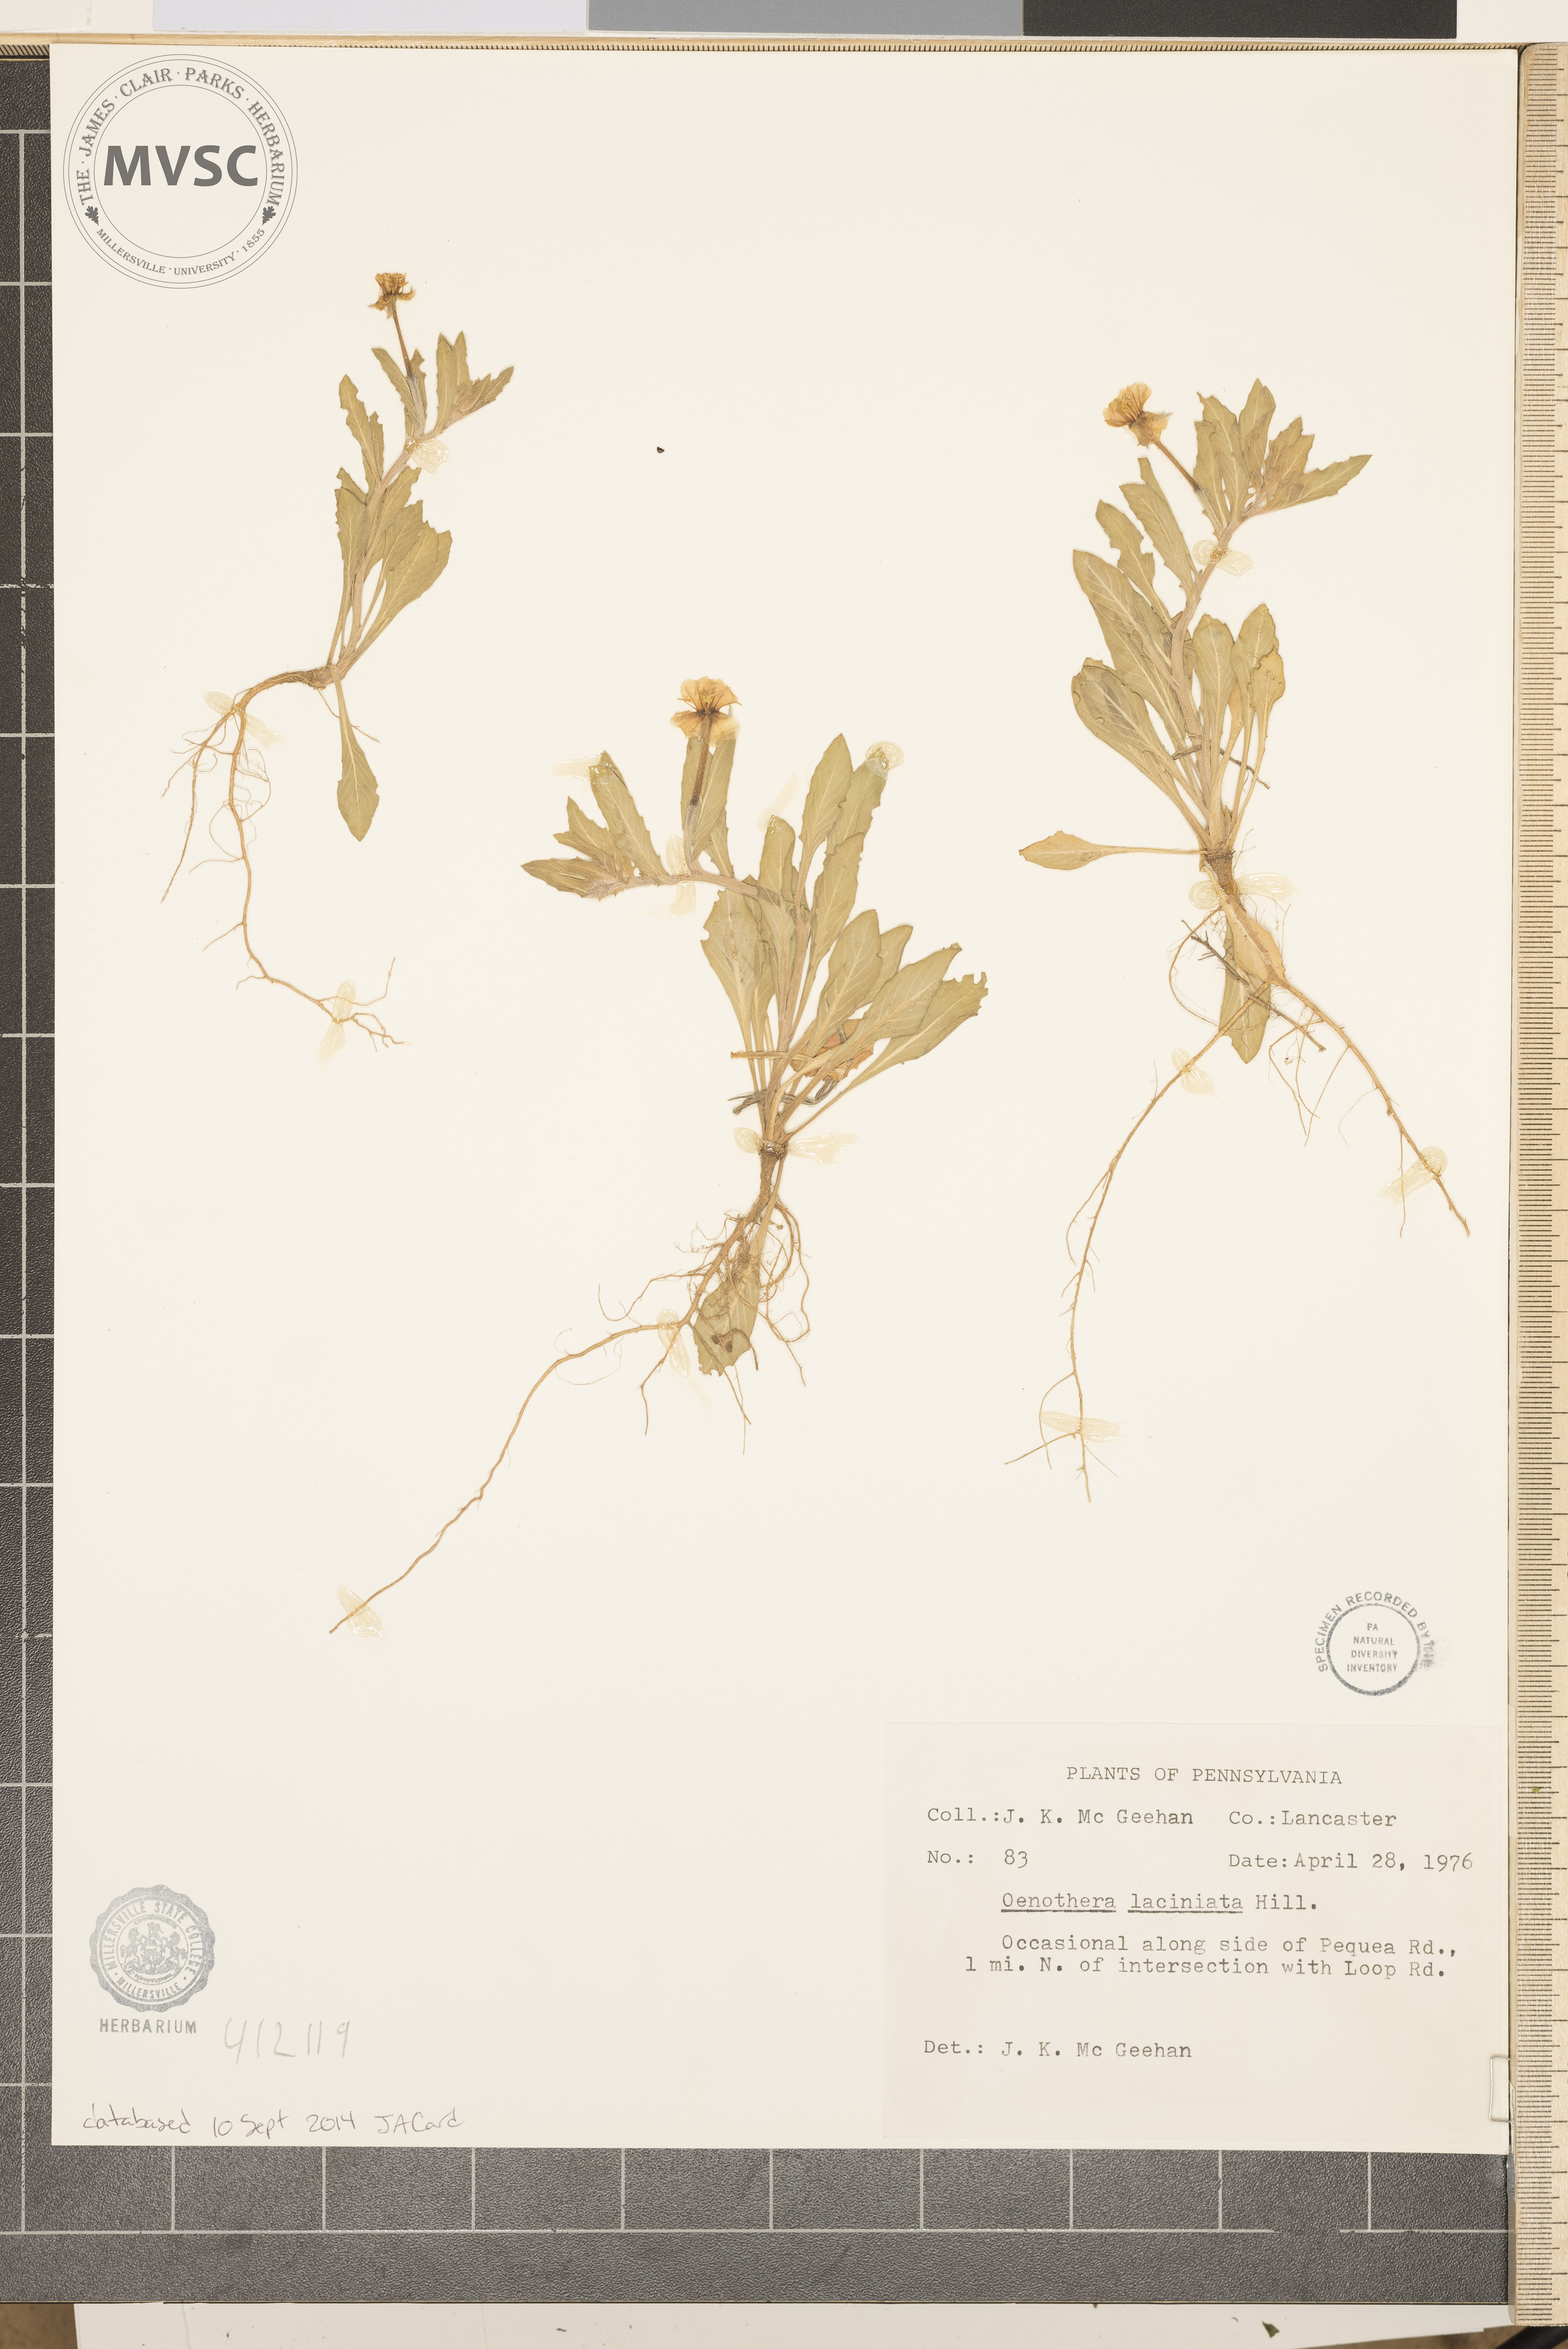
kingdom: Plantae
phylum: Tracheophyta
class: Magnoliopsida
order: Myrtales
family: Onagraceae
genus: Oenothera
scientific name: Oenothera laciniata
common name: Cut-leaved evening-primrose
